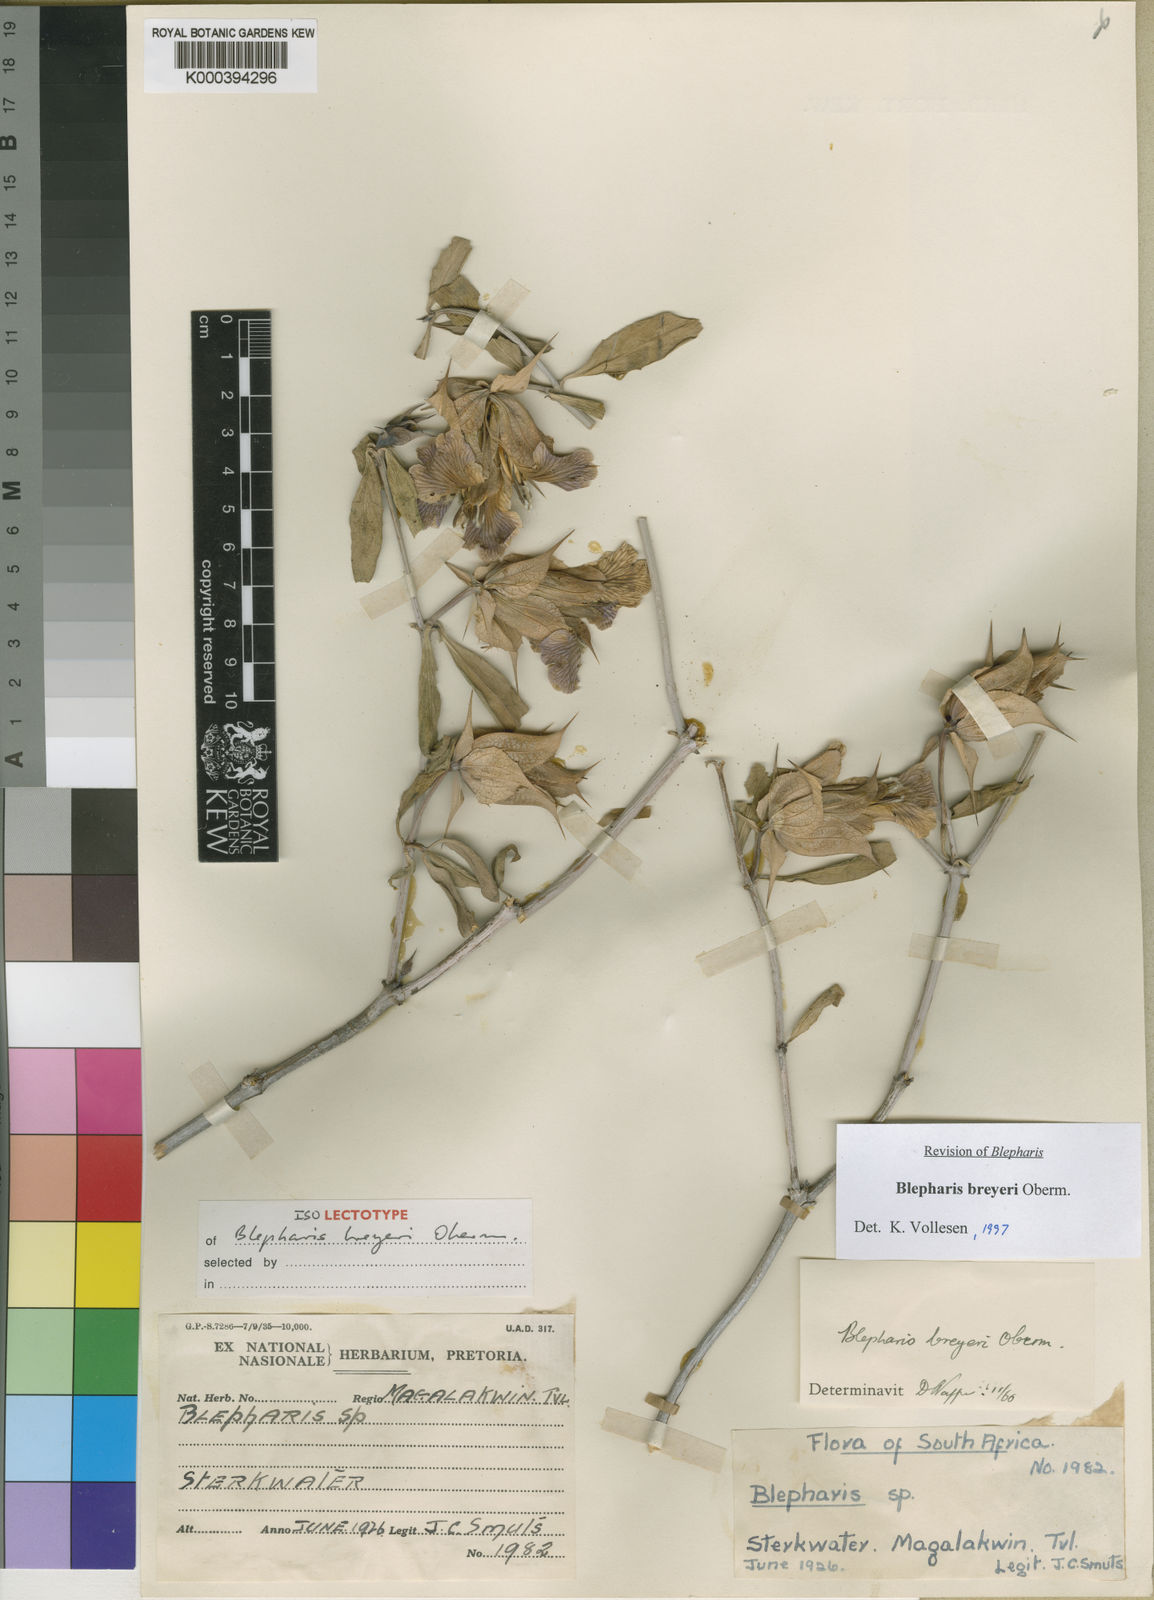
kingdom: Plantae
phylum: Tracheophyta
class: Magnoliopsida
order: Lamiales
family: Acanthaceae
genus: Blepharis
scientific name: Blepharis breyeri
